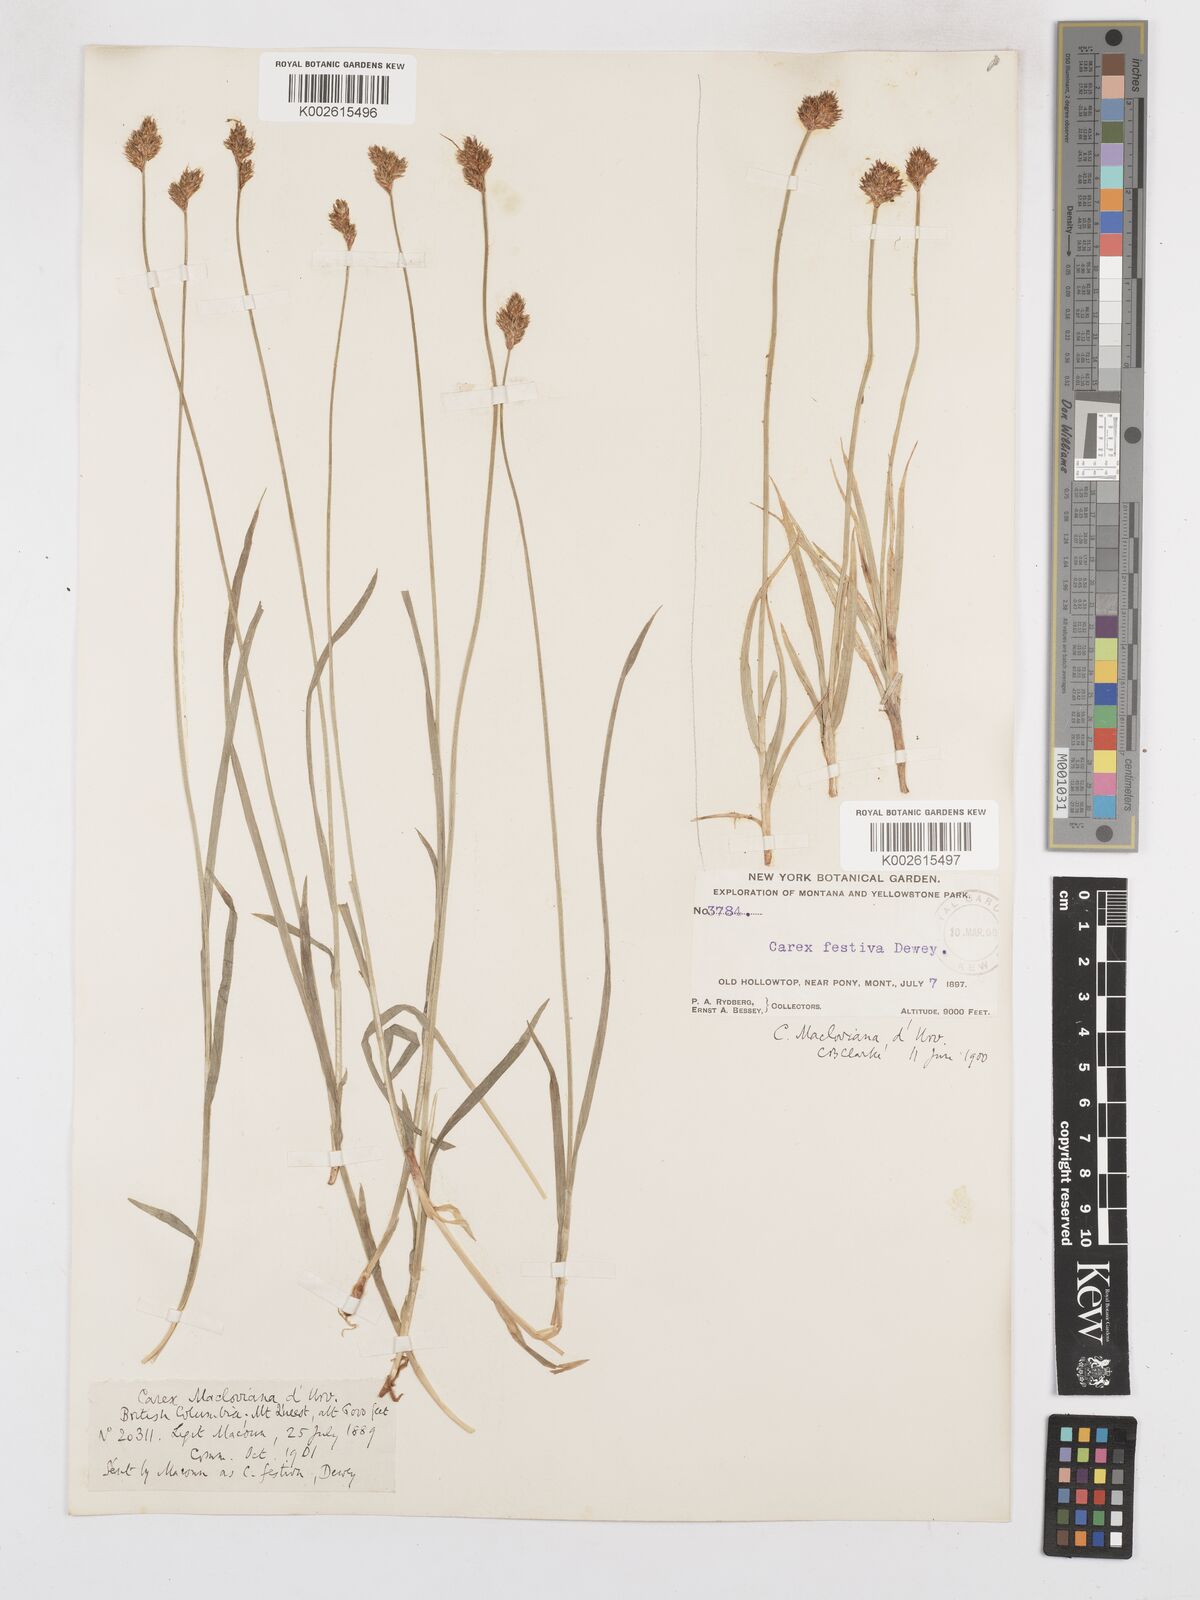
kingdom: Plantae
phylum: Tracheophyta
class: Liliopsida
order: Poales
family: Cyperaceae
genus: Carex
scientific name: Carex macloviana
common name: Falkland island sedge
